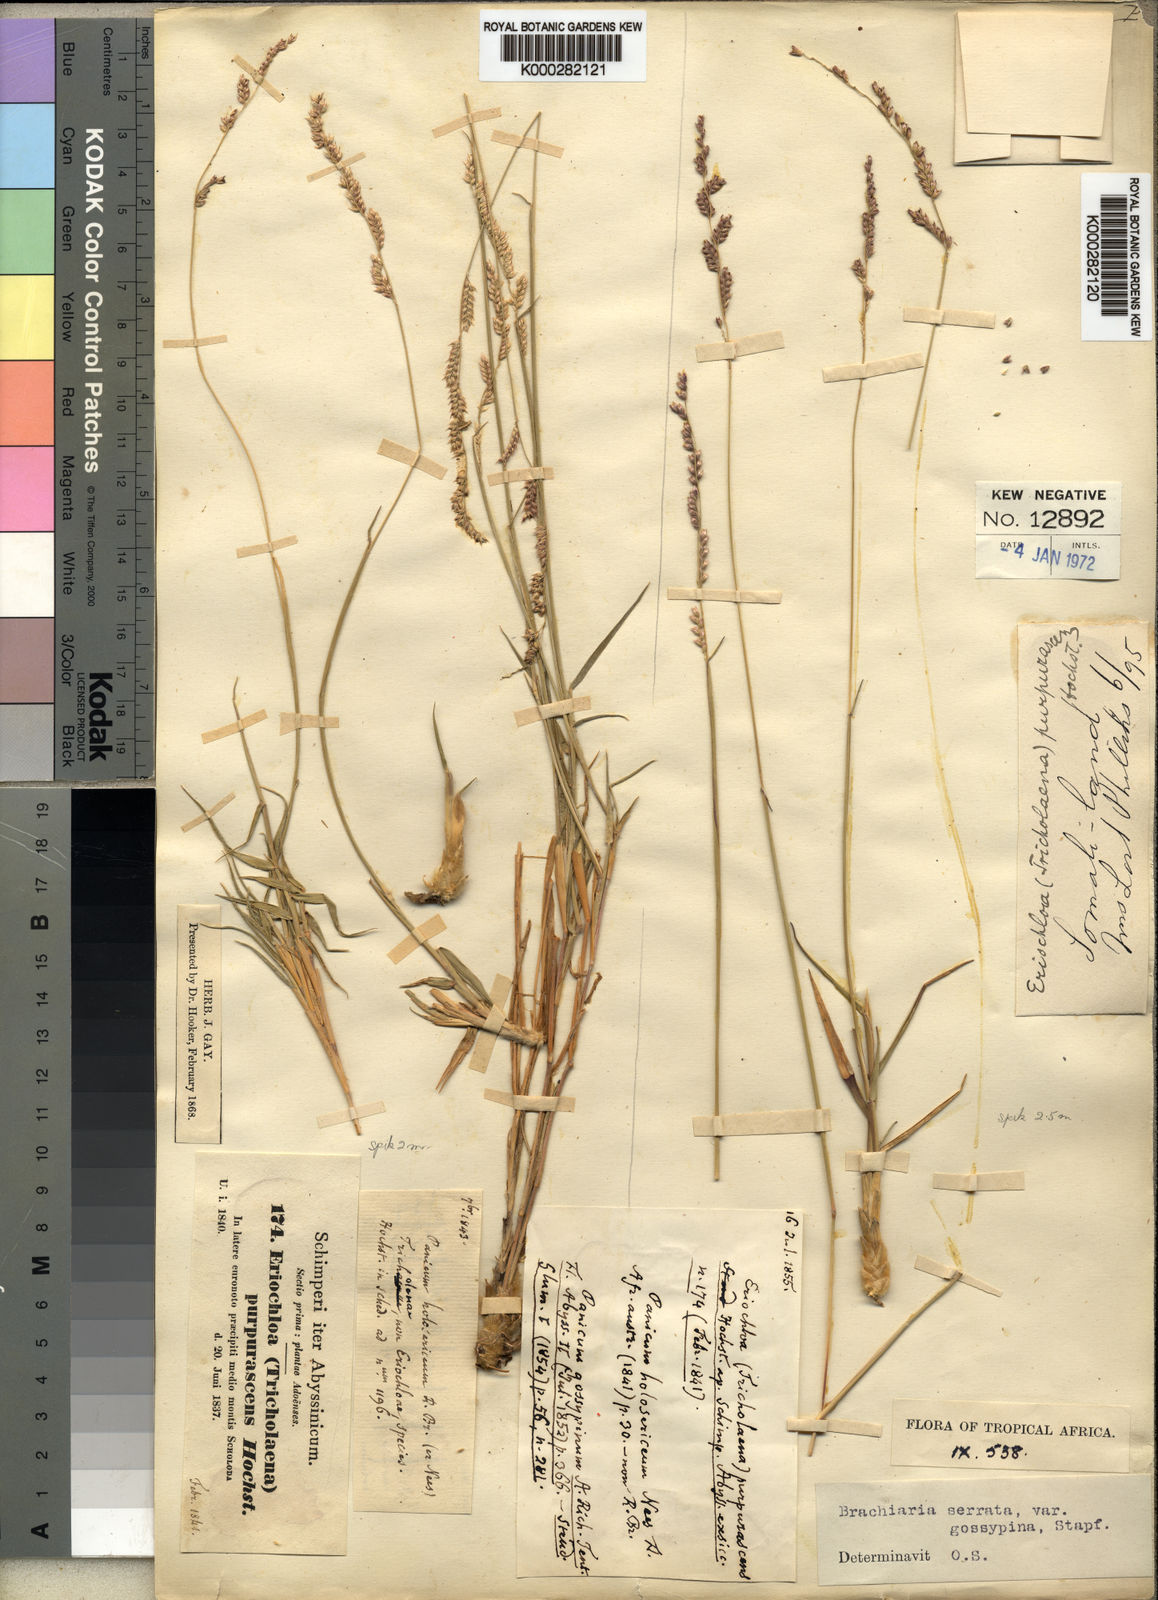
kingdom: Plantae
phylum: Tracheophyta
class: Liliopsida
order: Poales
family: Poaceae
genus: Urochloa
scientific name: Urochloa serrata
